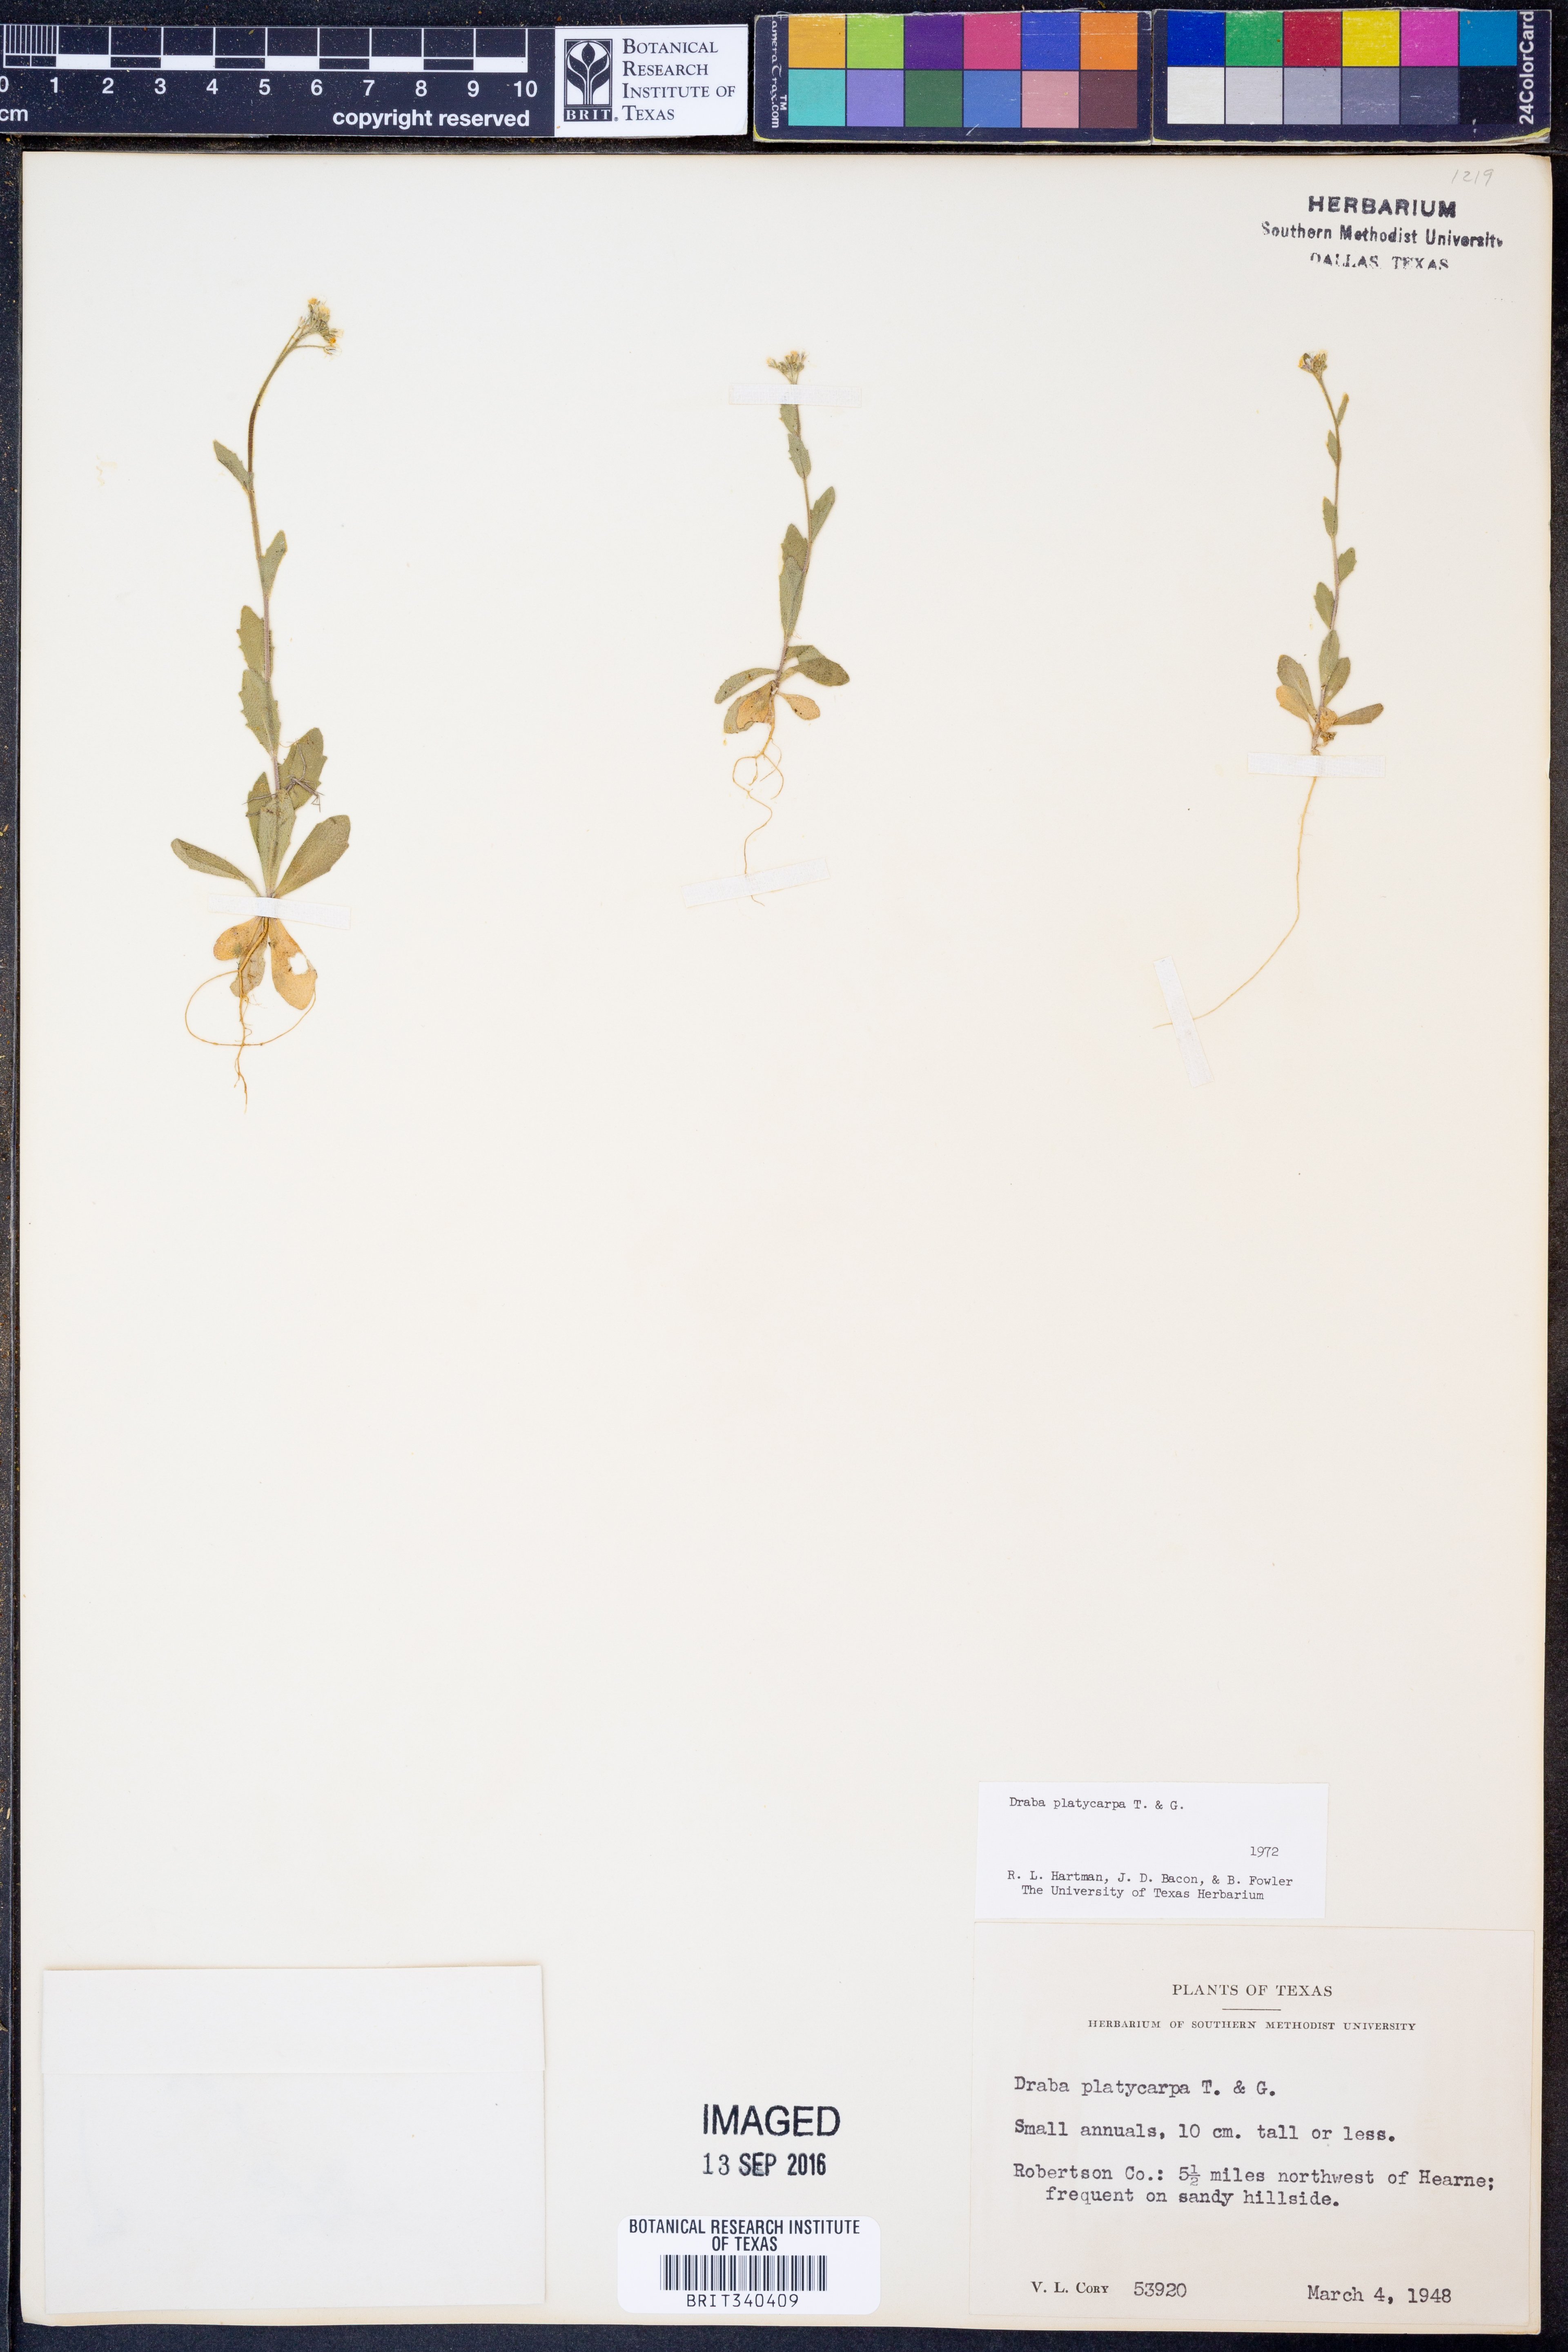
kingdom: Plantae
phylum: Tracheophyta
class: Magnoliopsida
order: Brassicales
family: Brassicaceae
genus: Tomostima
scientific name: Tomostima platycarpa
